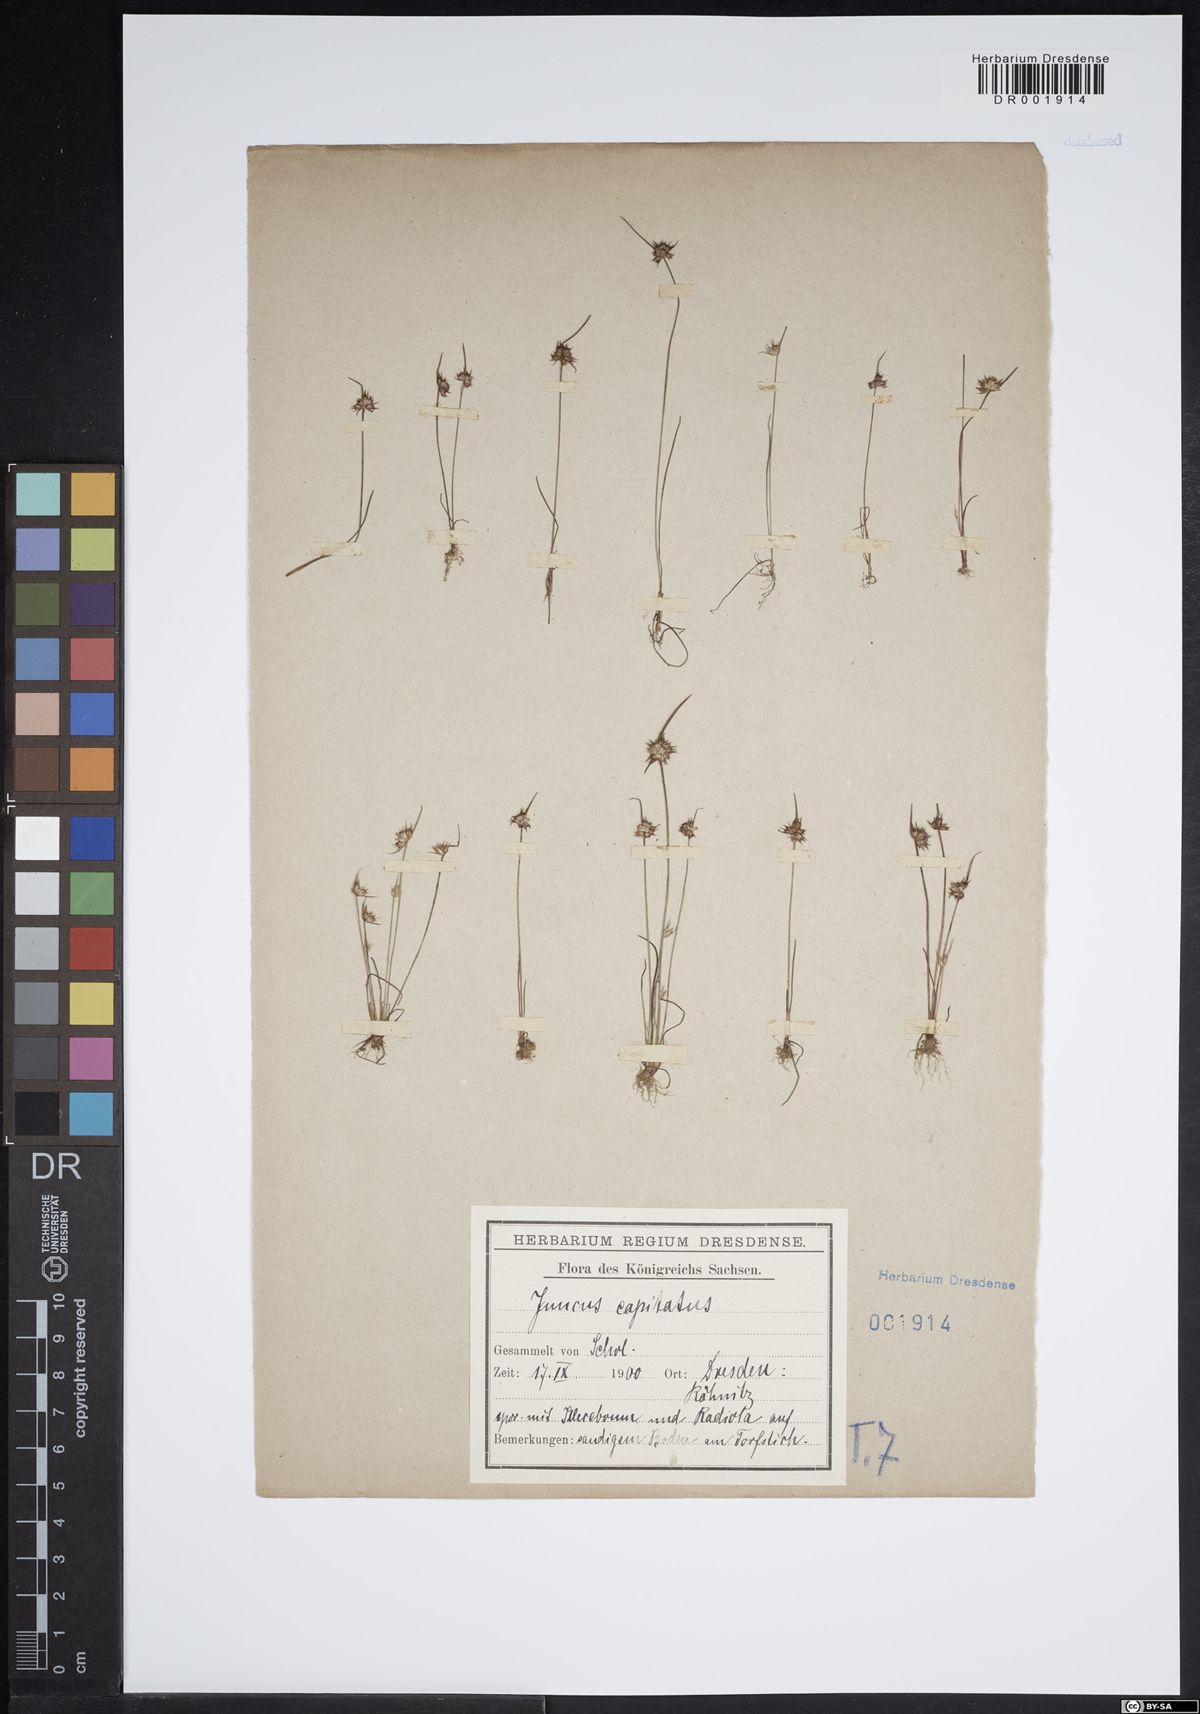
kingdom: Plantae
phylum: Tracheophyta
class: Liliopsida
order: Poales
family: Juncaceae
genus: Juncus
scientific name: Juncus capitatus
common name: Dwarf rush
